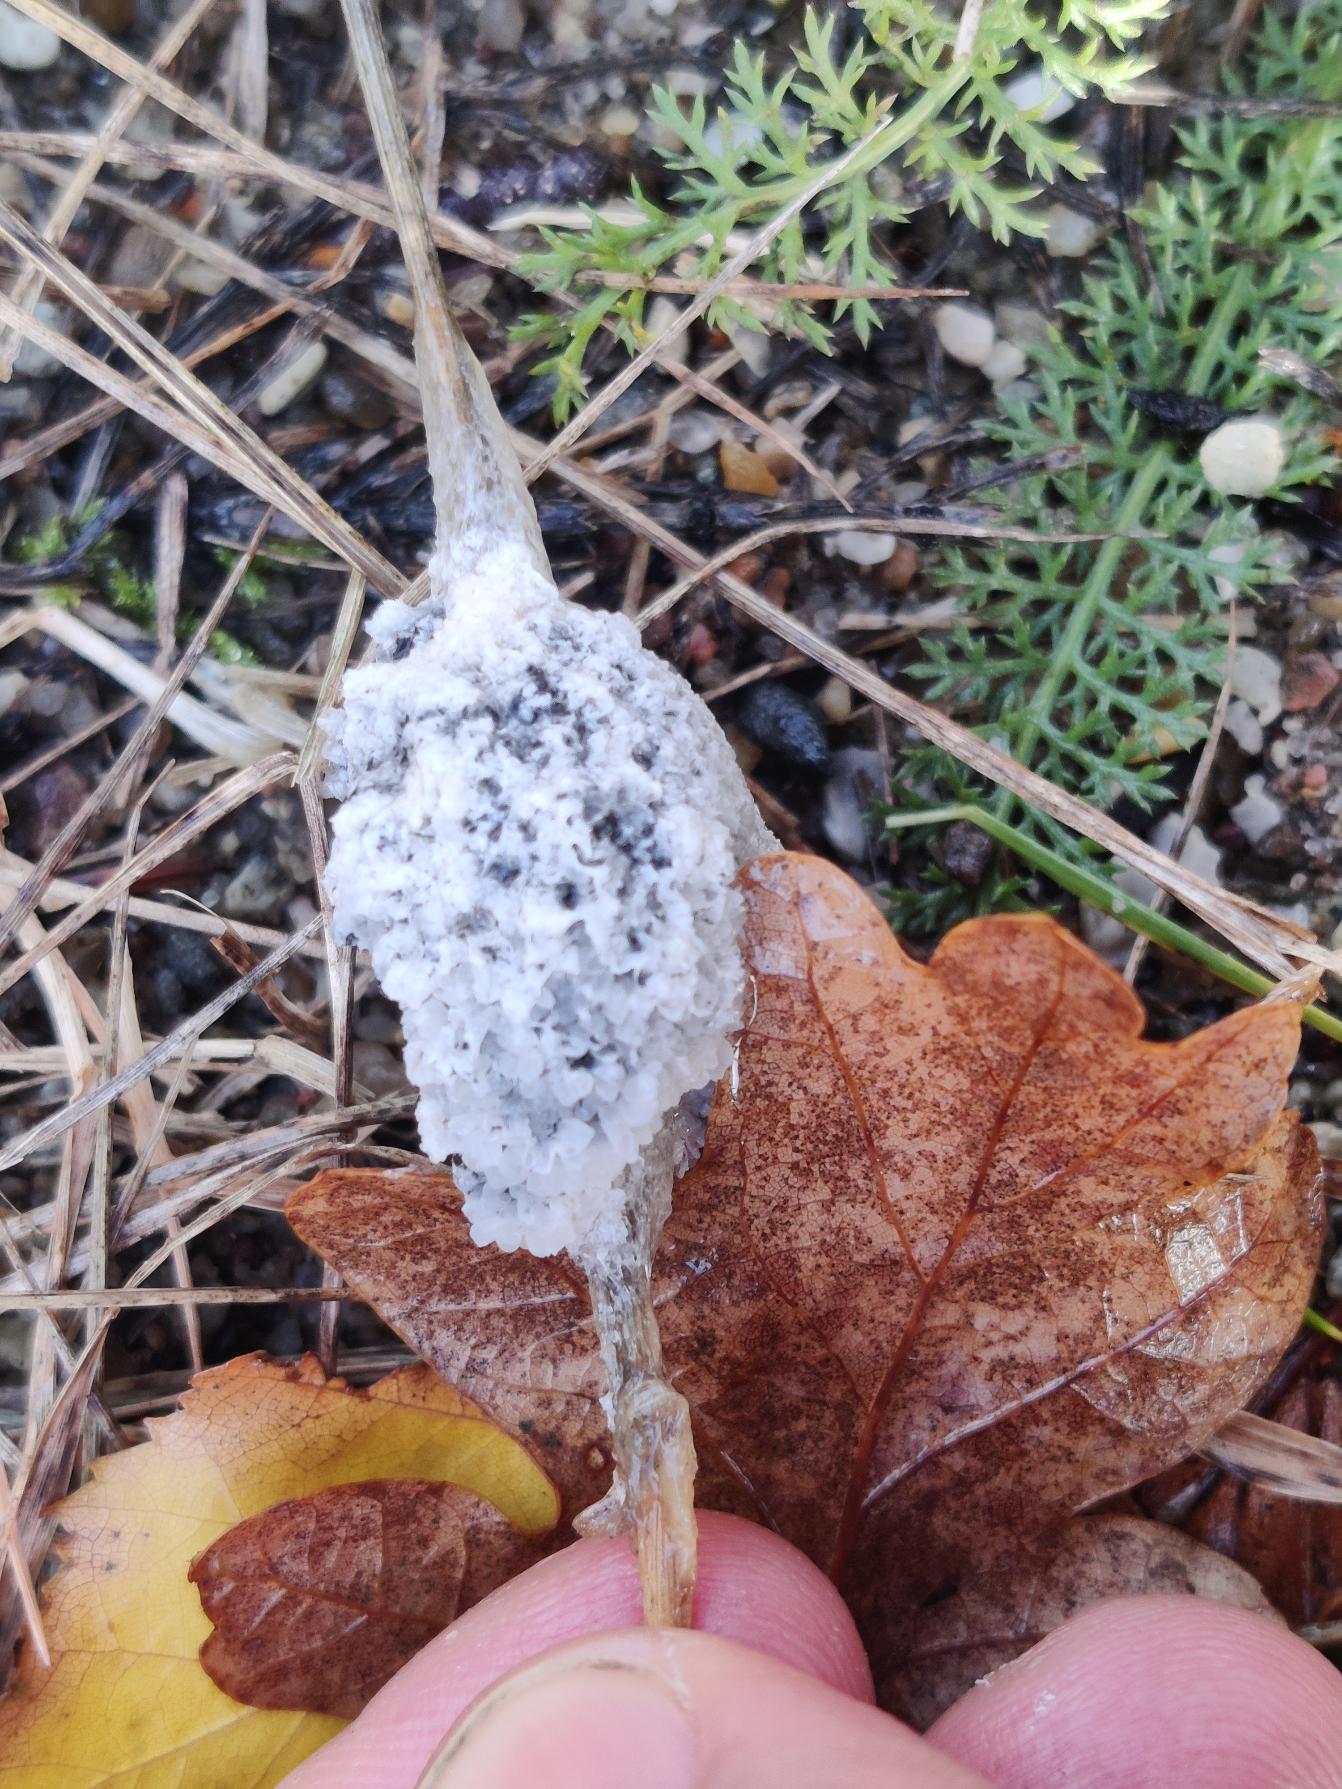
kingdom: Protozoa
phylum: Mycetozoa
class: Myxomycetes
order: Physarales
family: Didymiaceae
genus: Mucilago
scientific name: Mucilago crustacea
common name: Urteskum
